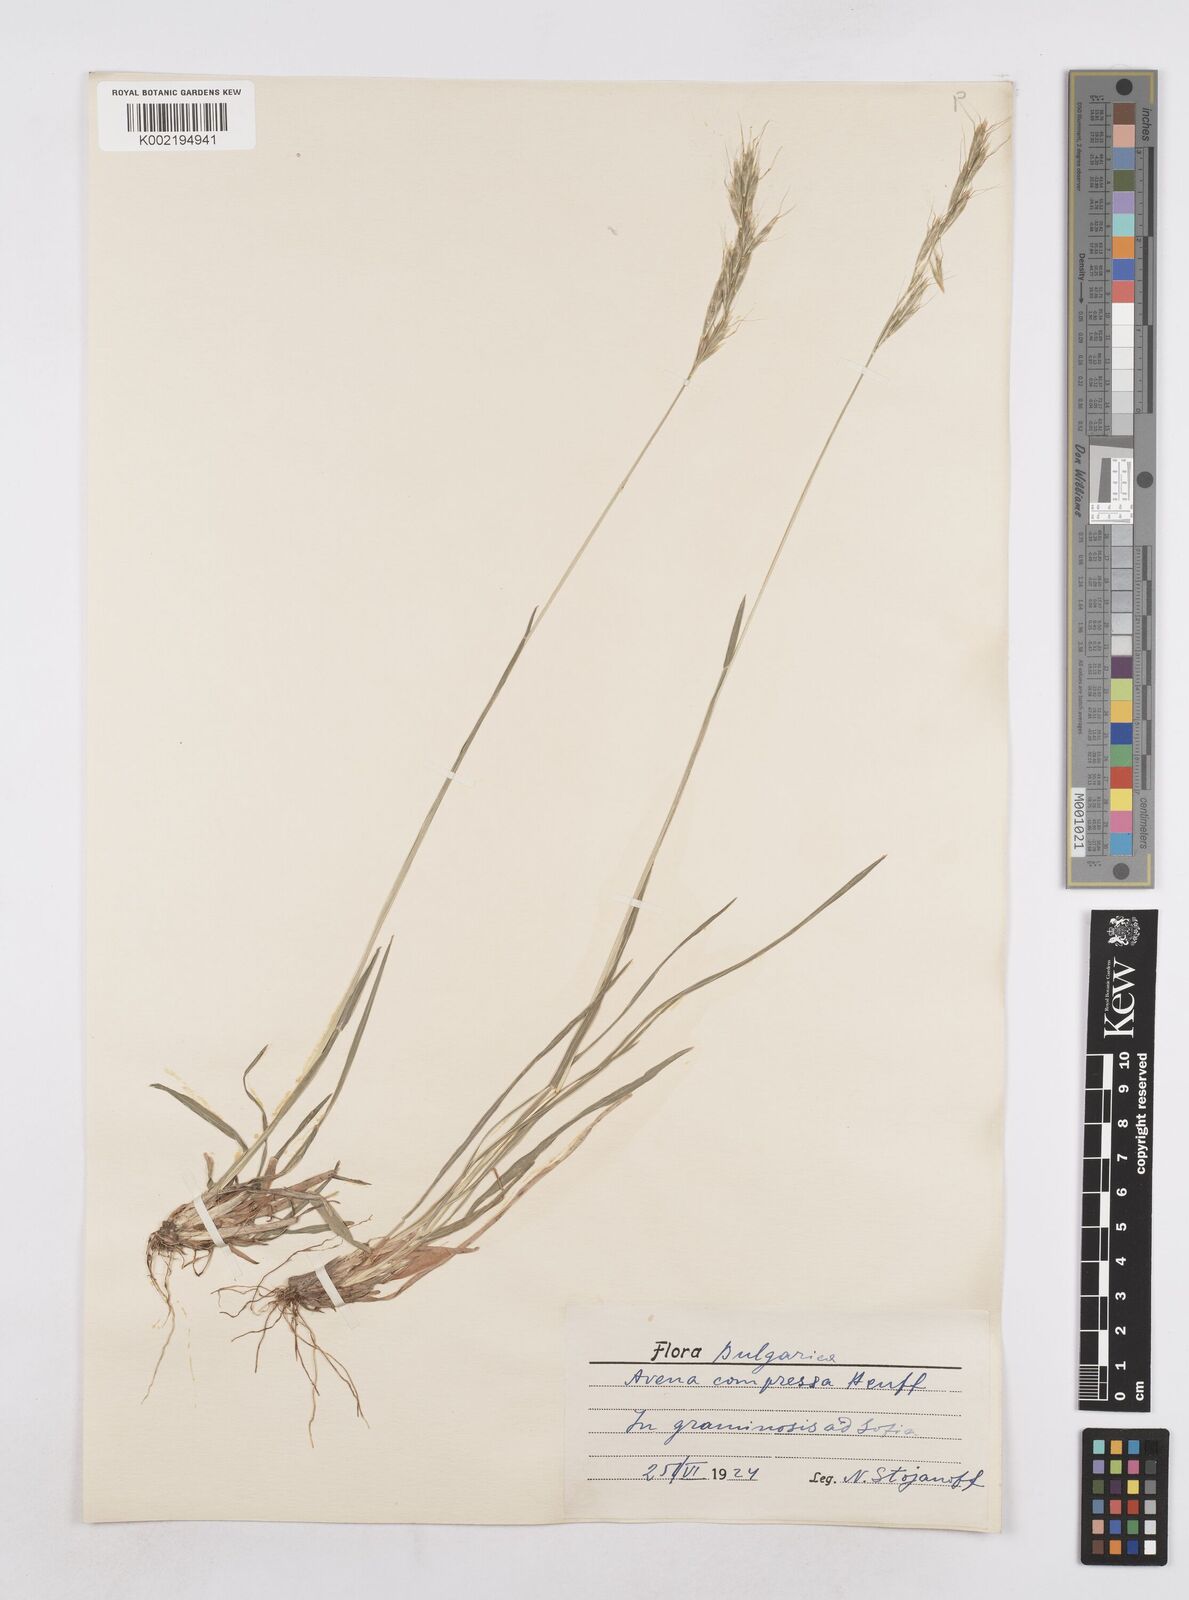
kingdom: Plantae
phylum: Tracheophyta
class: Liliopsida
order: Poales
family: Poaceae
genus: Helictochloa
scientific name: Helictochloa compressa
